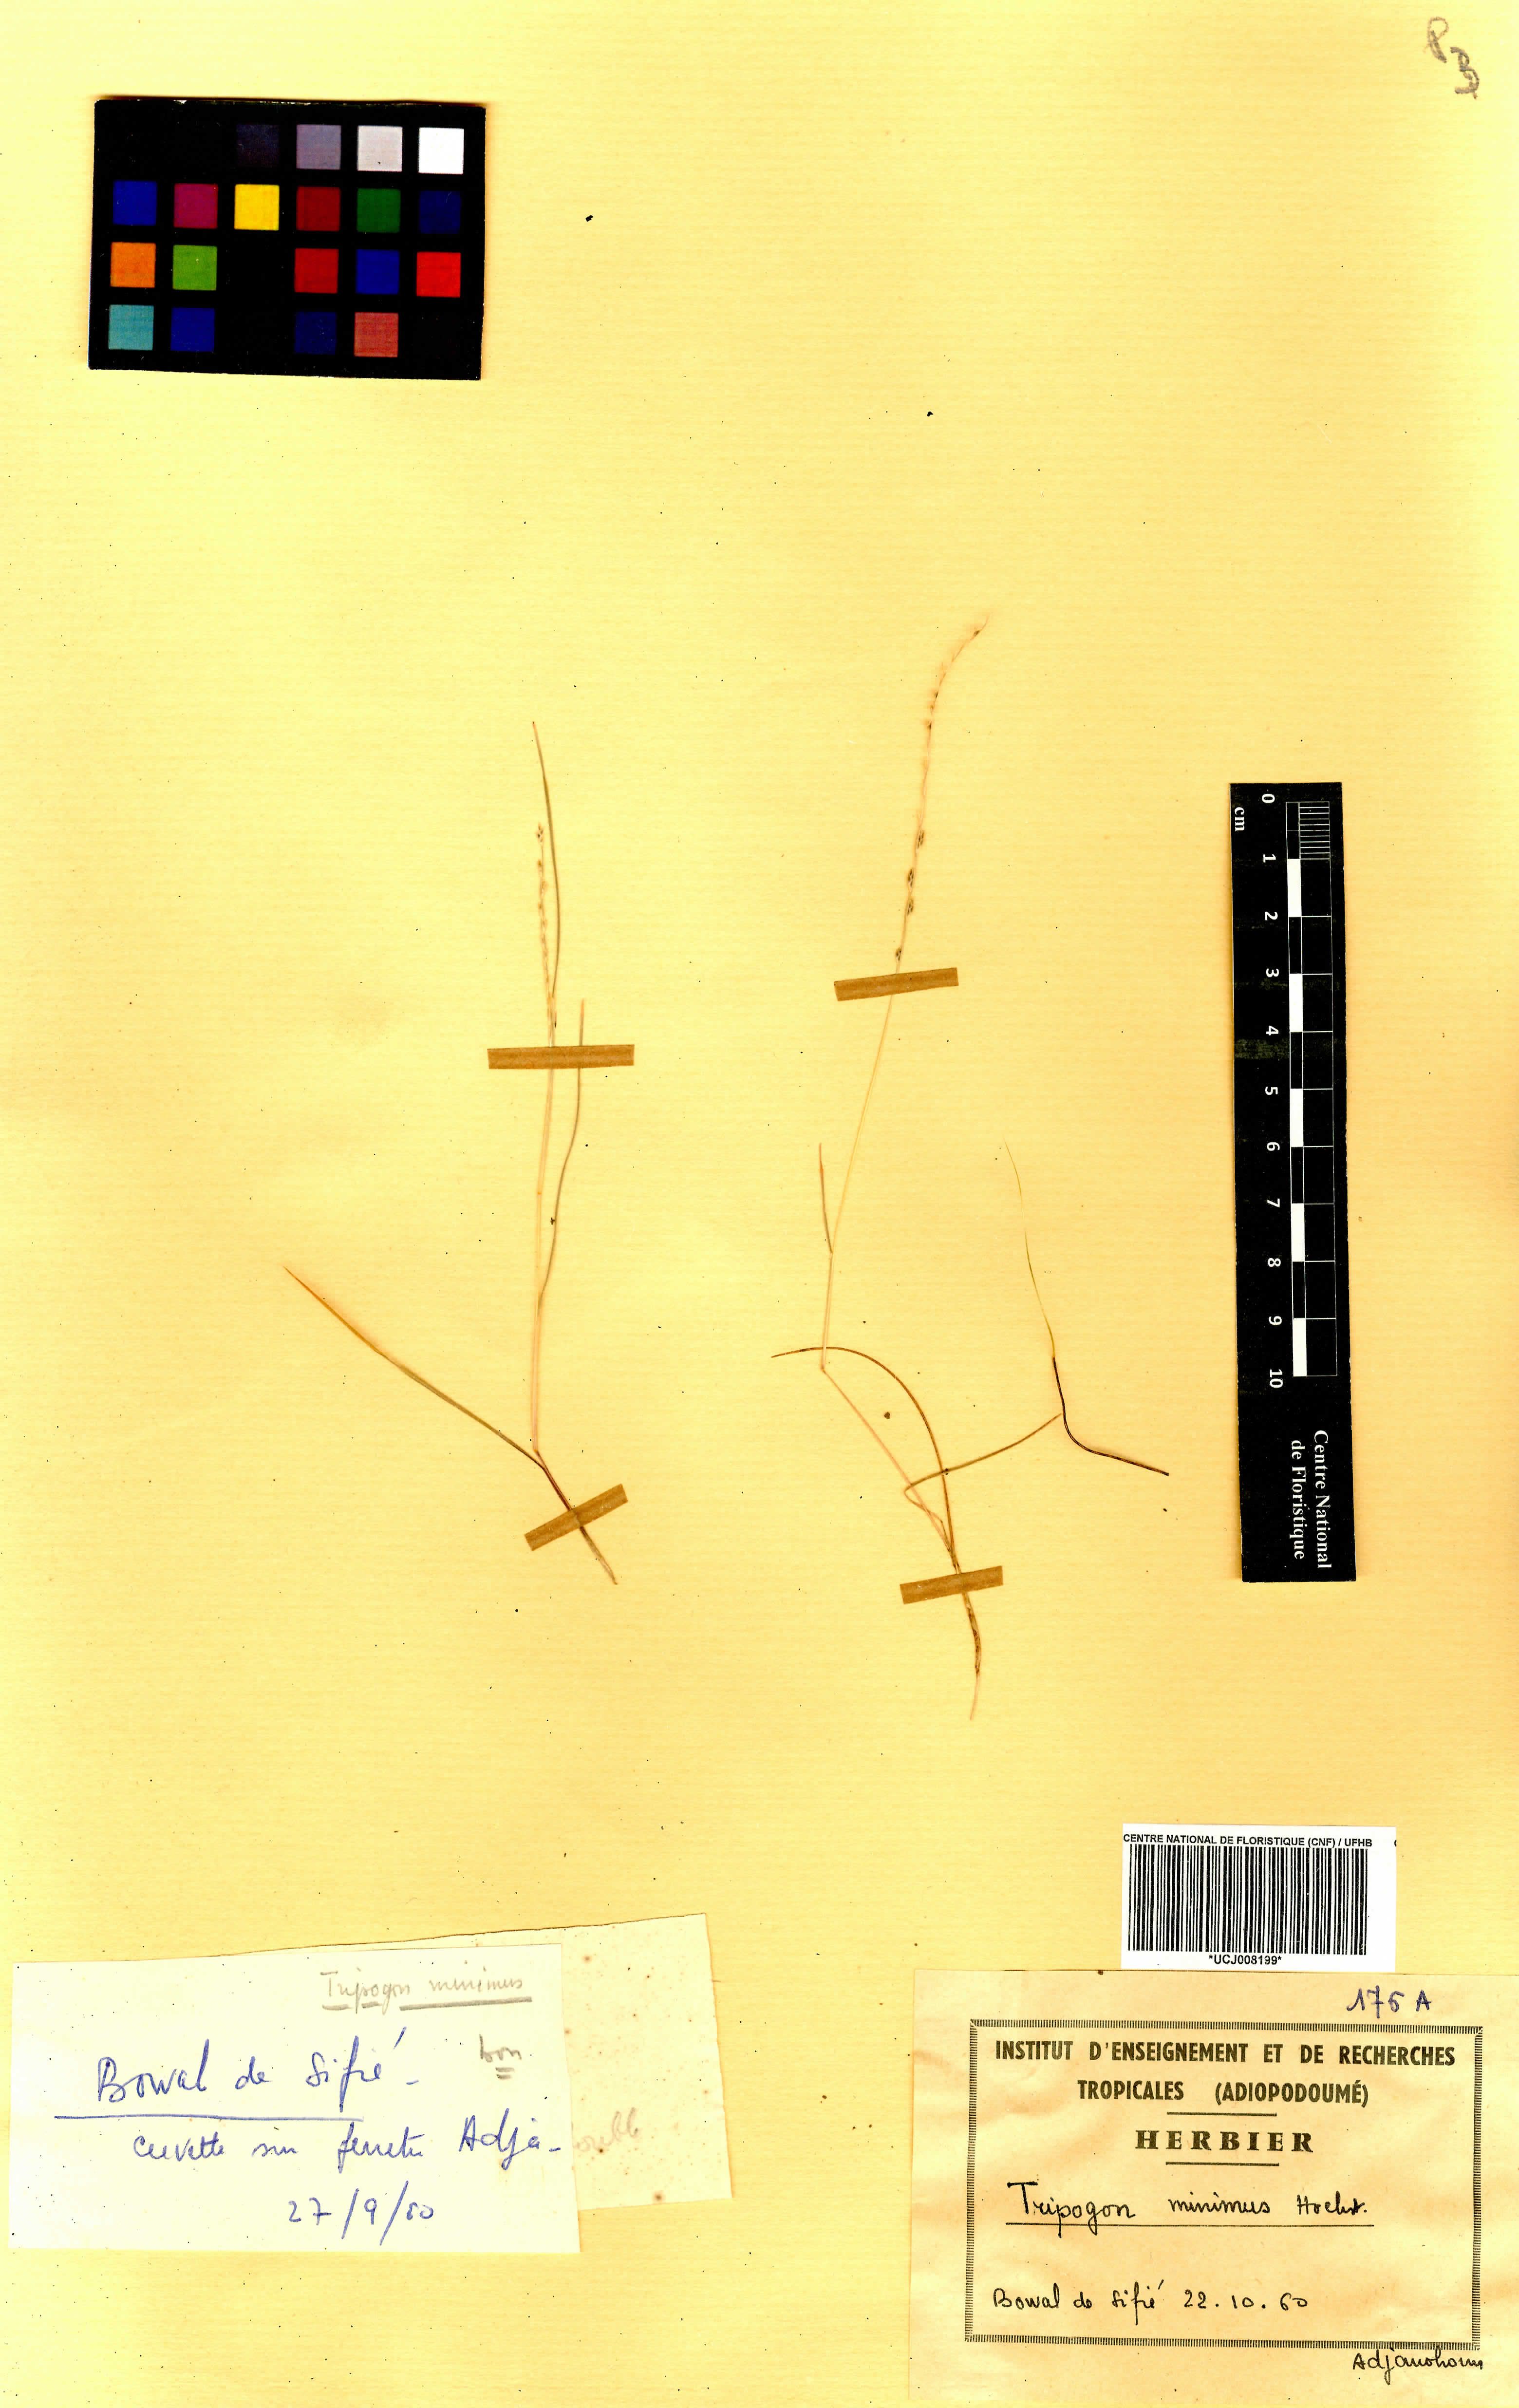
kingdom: Plantae
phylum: Tracheophyta
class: Liliopsida
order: Poales
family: Poaceae
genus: Tripogonella
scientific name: Tripogonella minima
